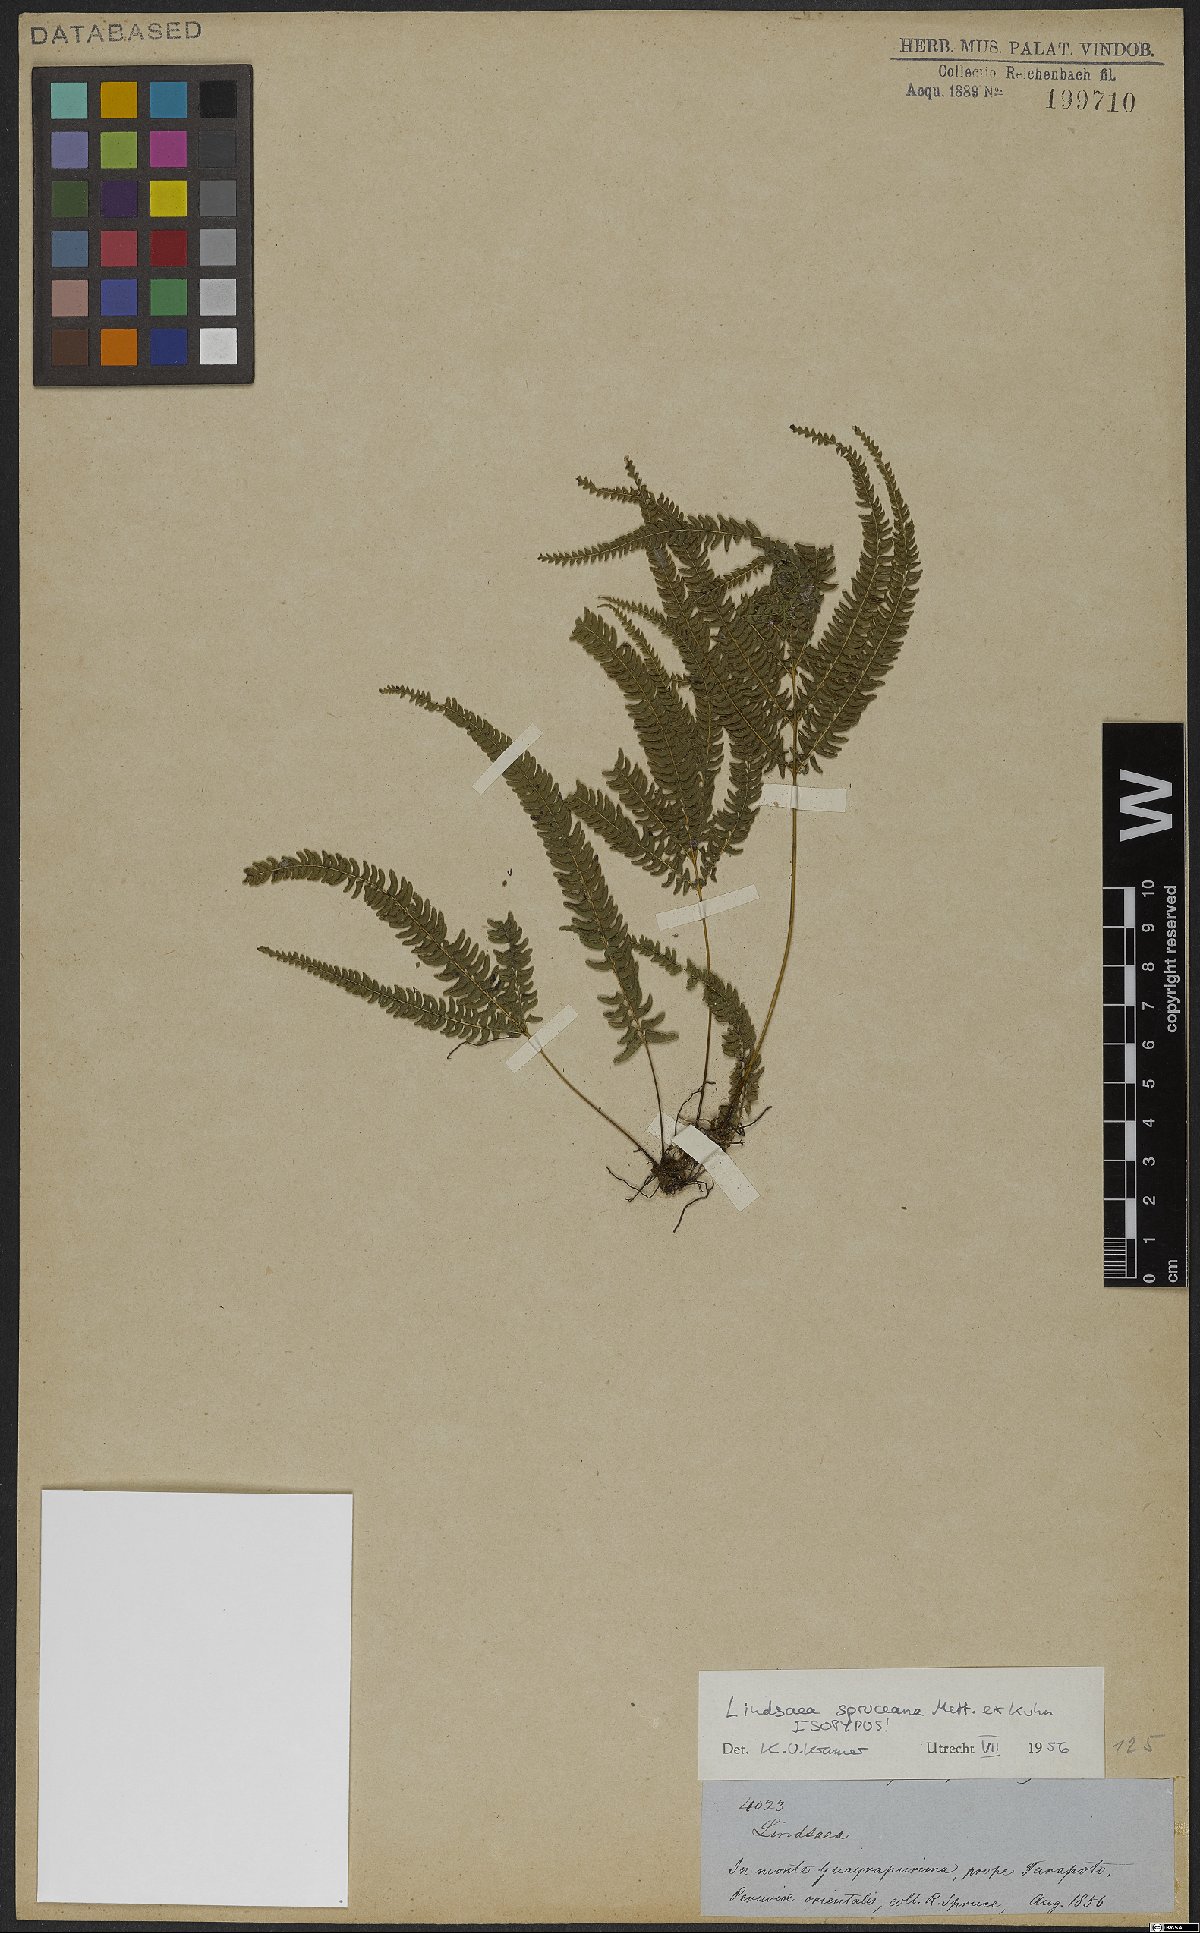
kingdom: Plantae
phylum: Tracheophyta
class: Polypodiopsida
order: Polypodiales
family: Lindsaeaceae
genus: Lindsaea
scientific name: Lindsaea spruceana
